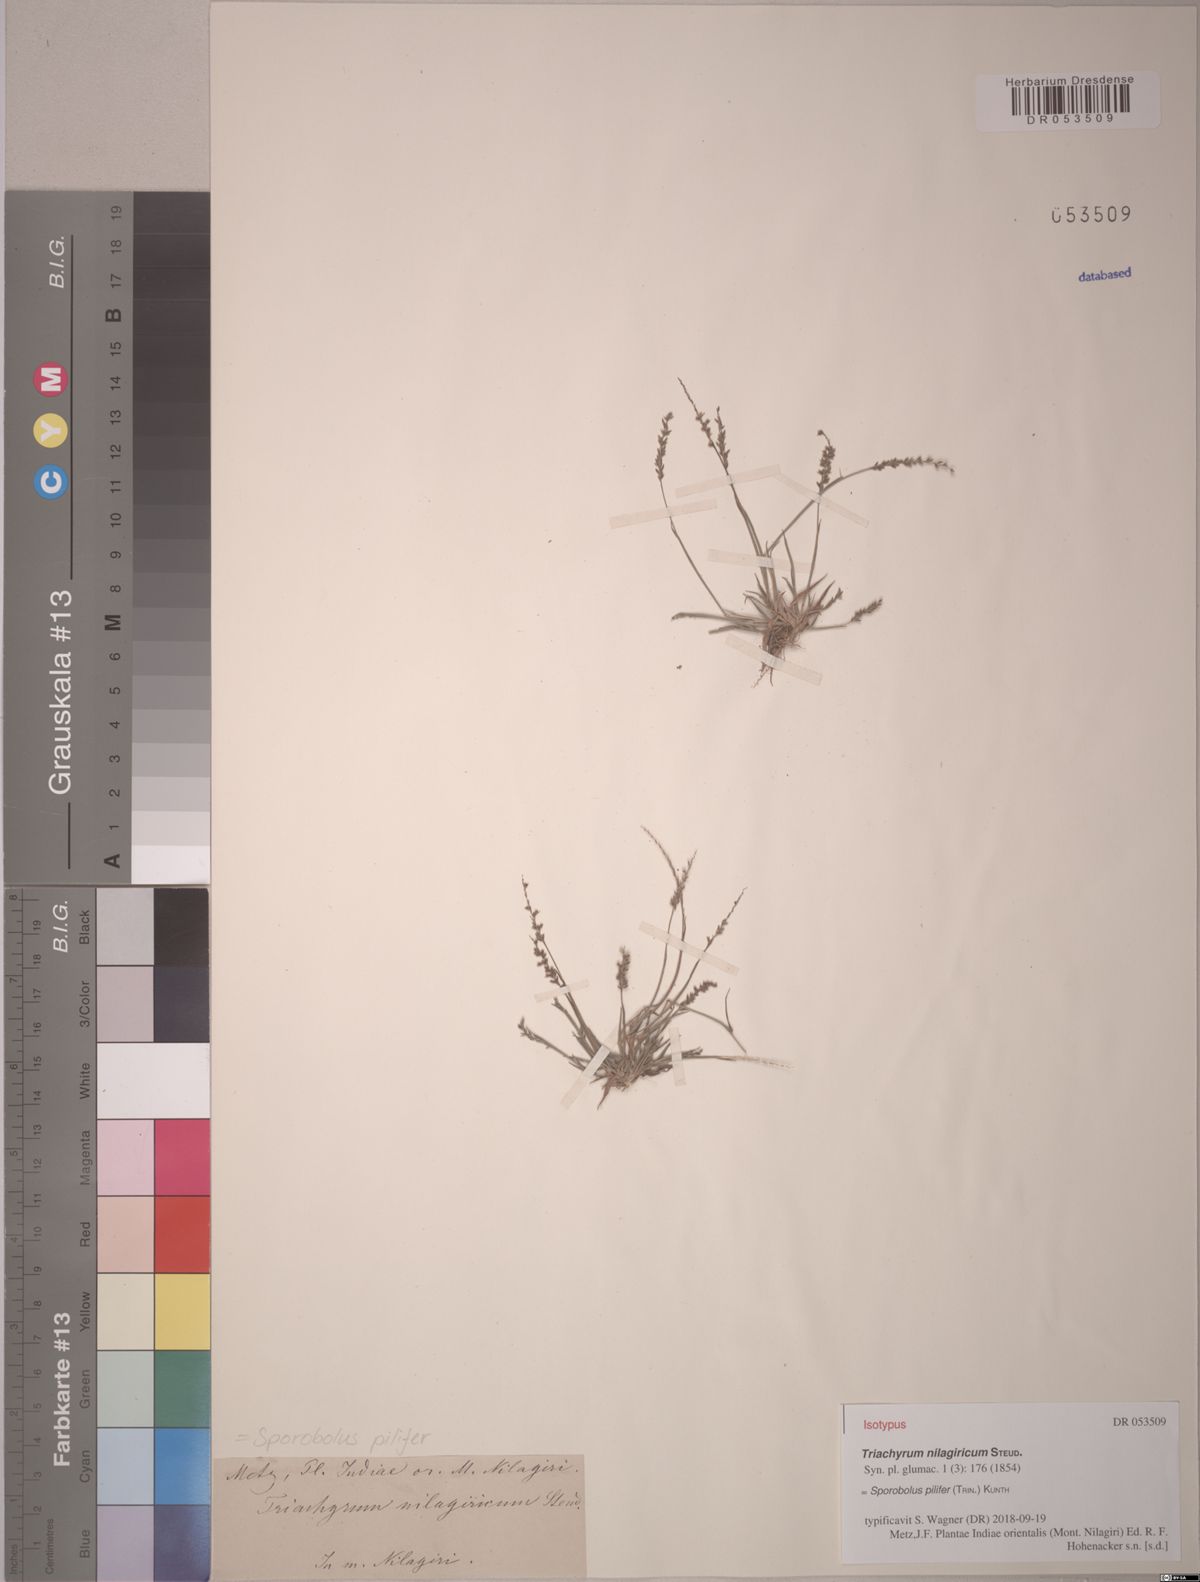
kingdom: Plantae
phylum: Tracheophyta
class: Liliopsida
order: Poales
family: Poaceae
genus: Sporobolus
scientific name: Sporobolus pilifer
